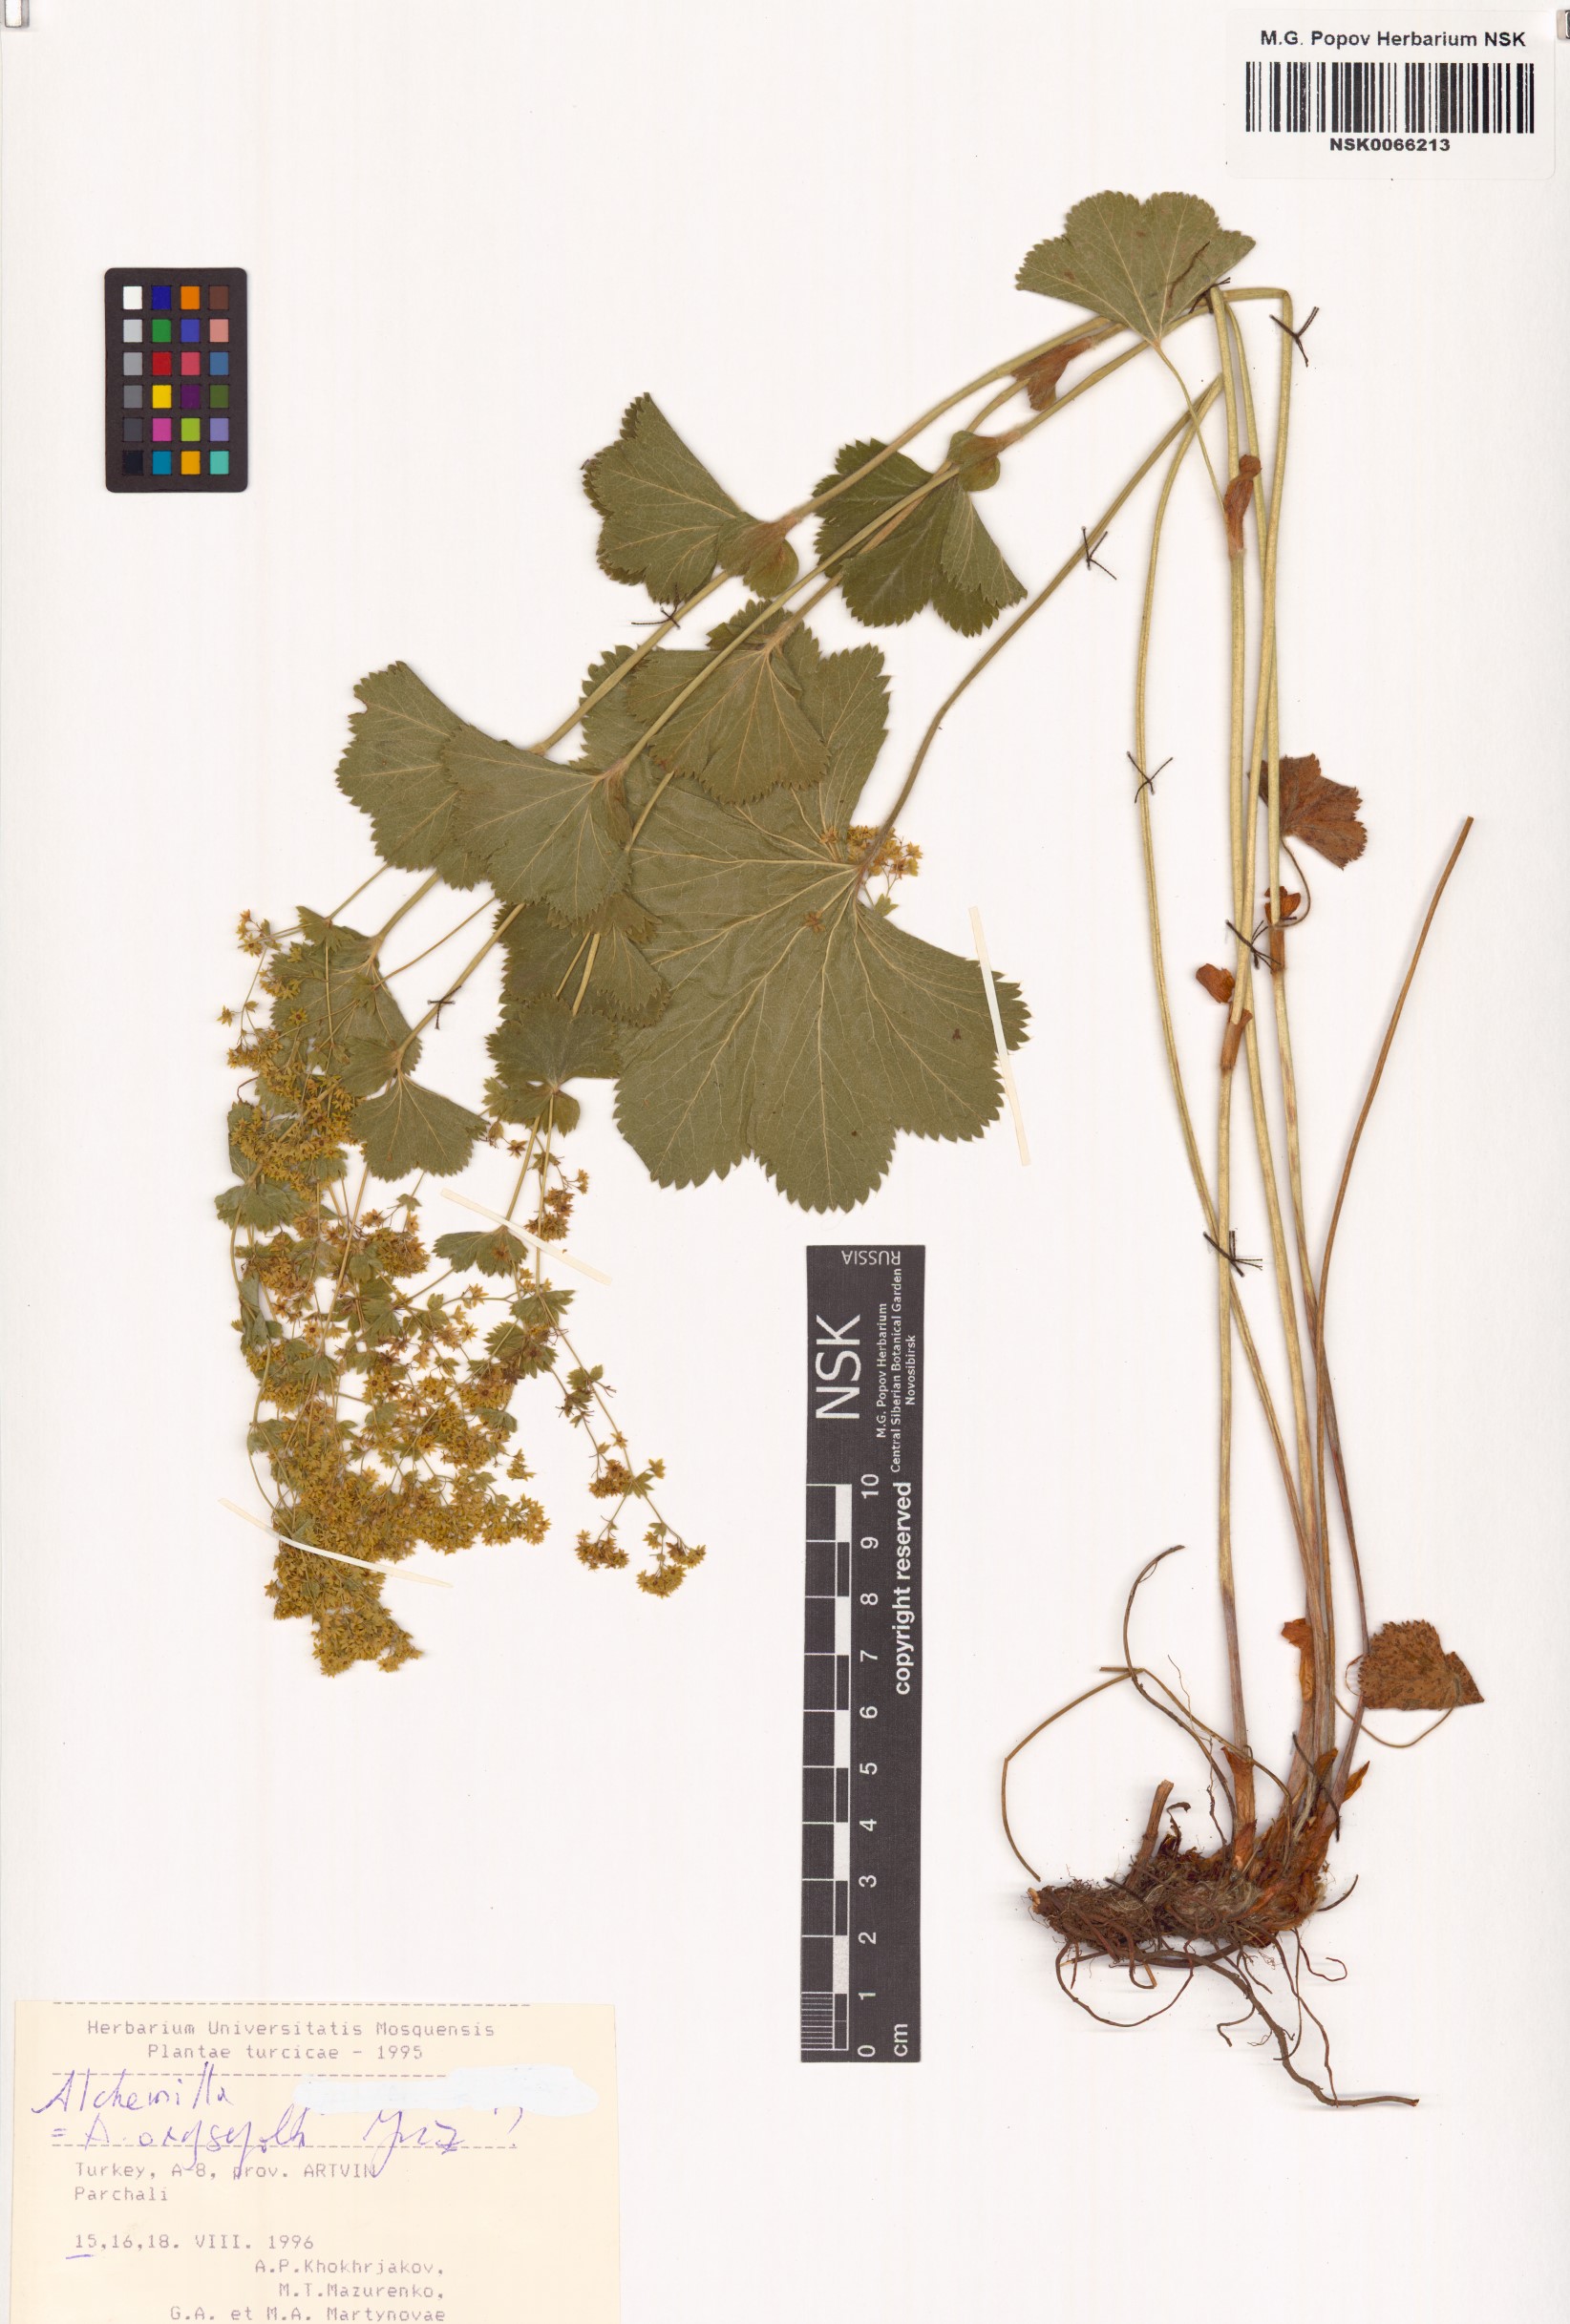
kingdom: Plantae
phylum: Tracheophyta
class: Magnoliopsida
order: Rosales
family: Rosaceae
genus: Alchemilla
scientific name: Alchemilla oxysepala
